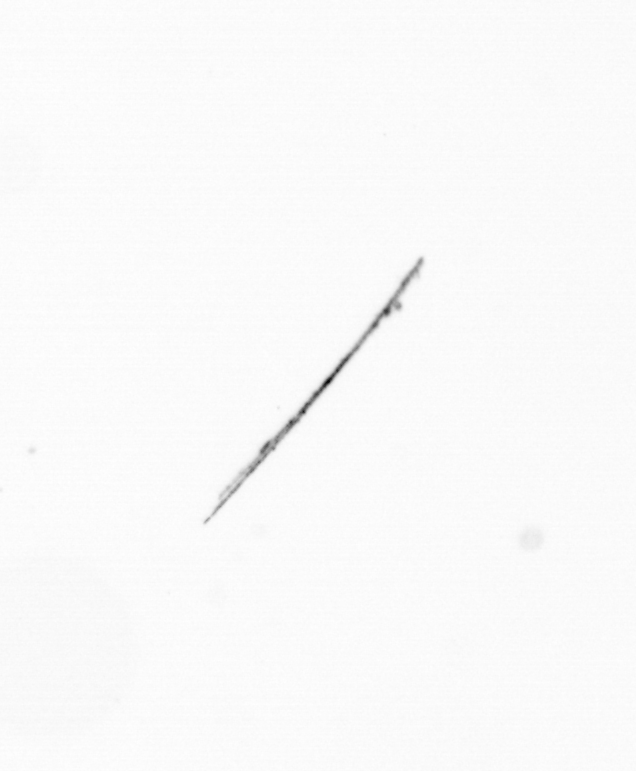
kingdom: Chromista
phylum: Ochrophyta
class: Bacillariophyceae
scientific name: Bacillariophyceae
